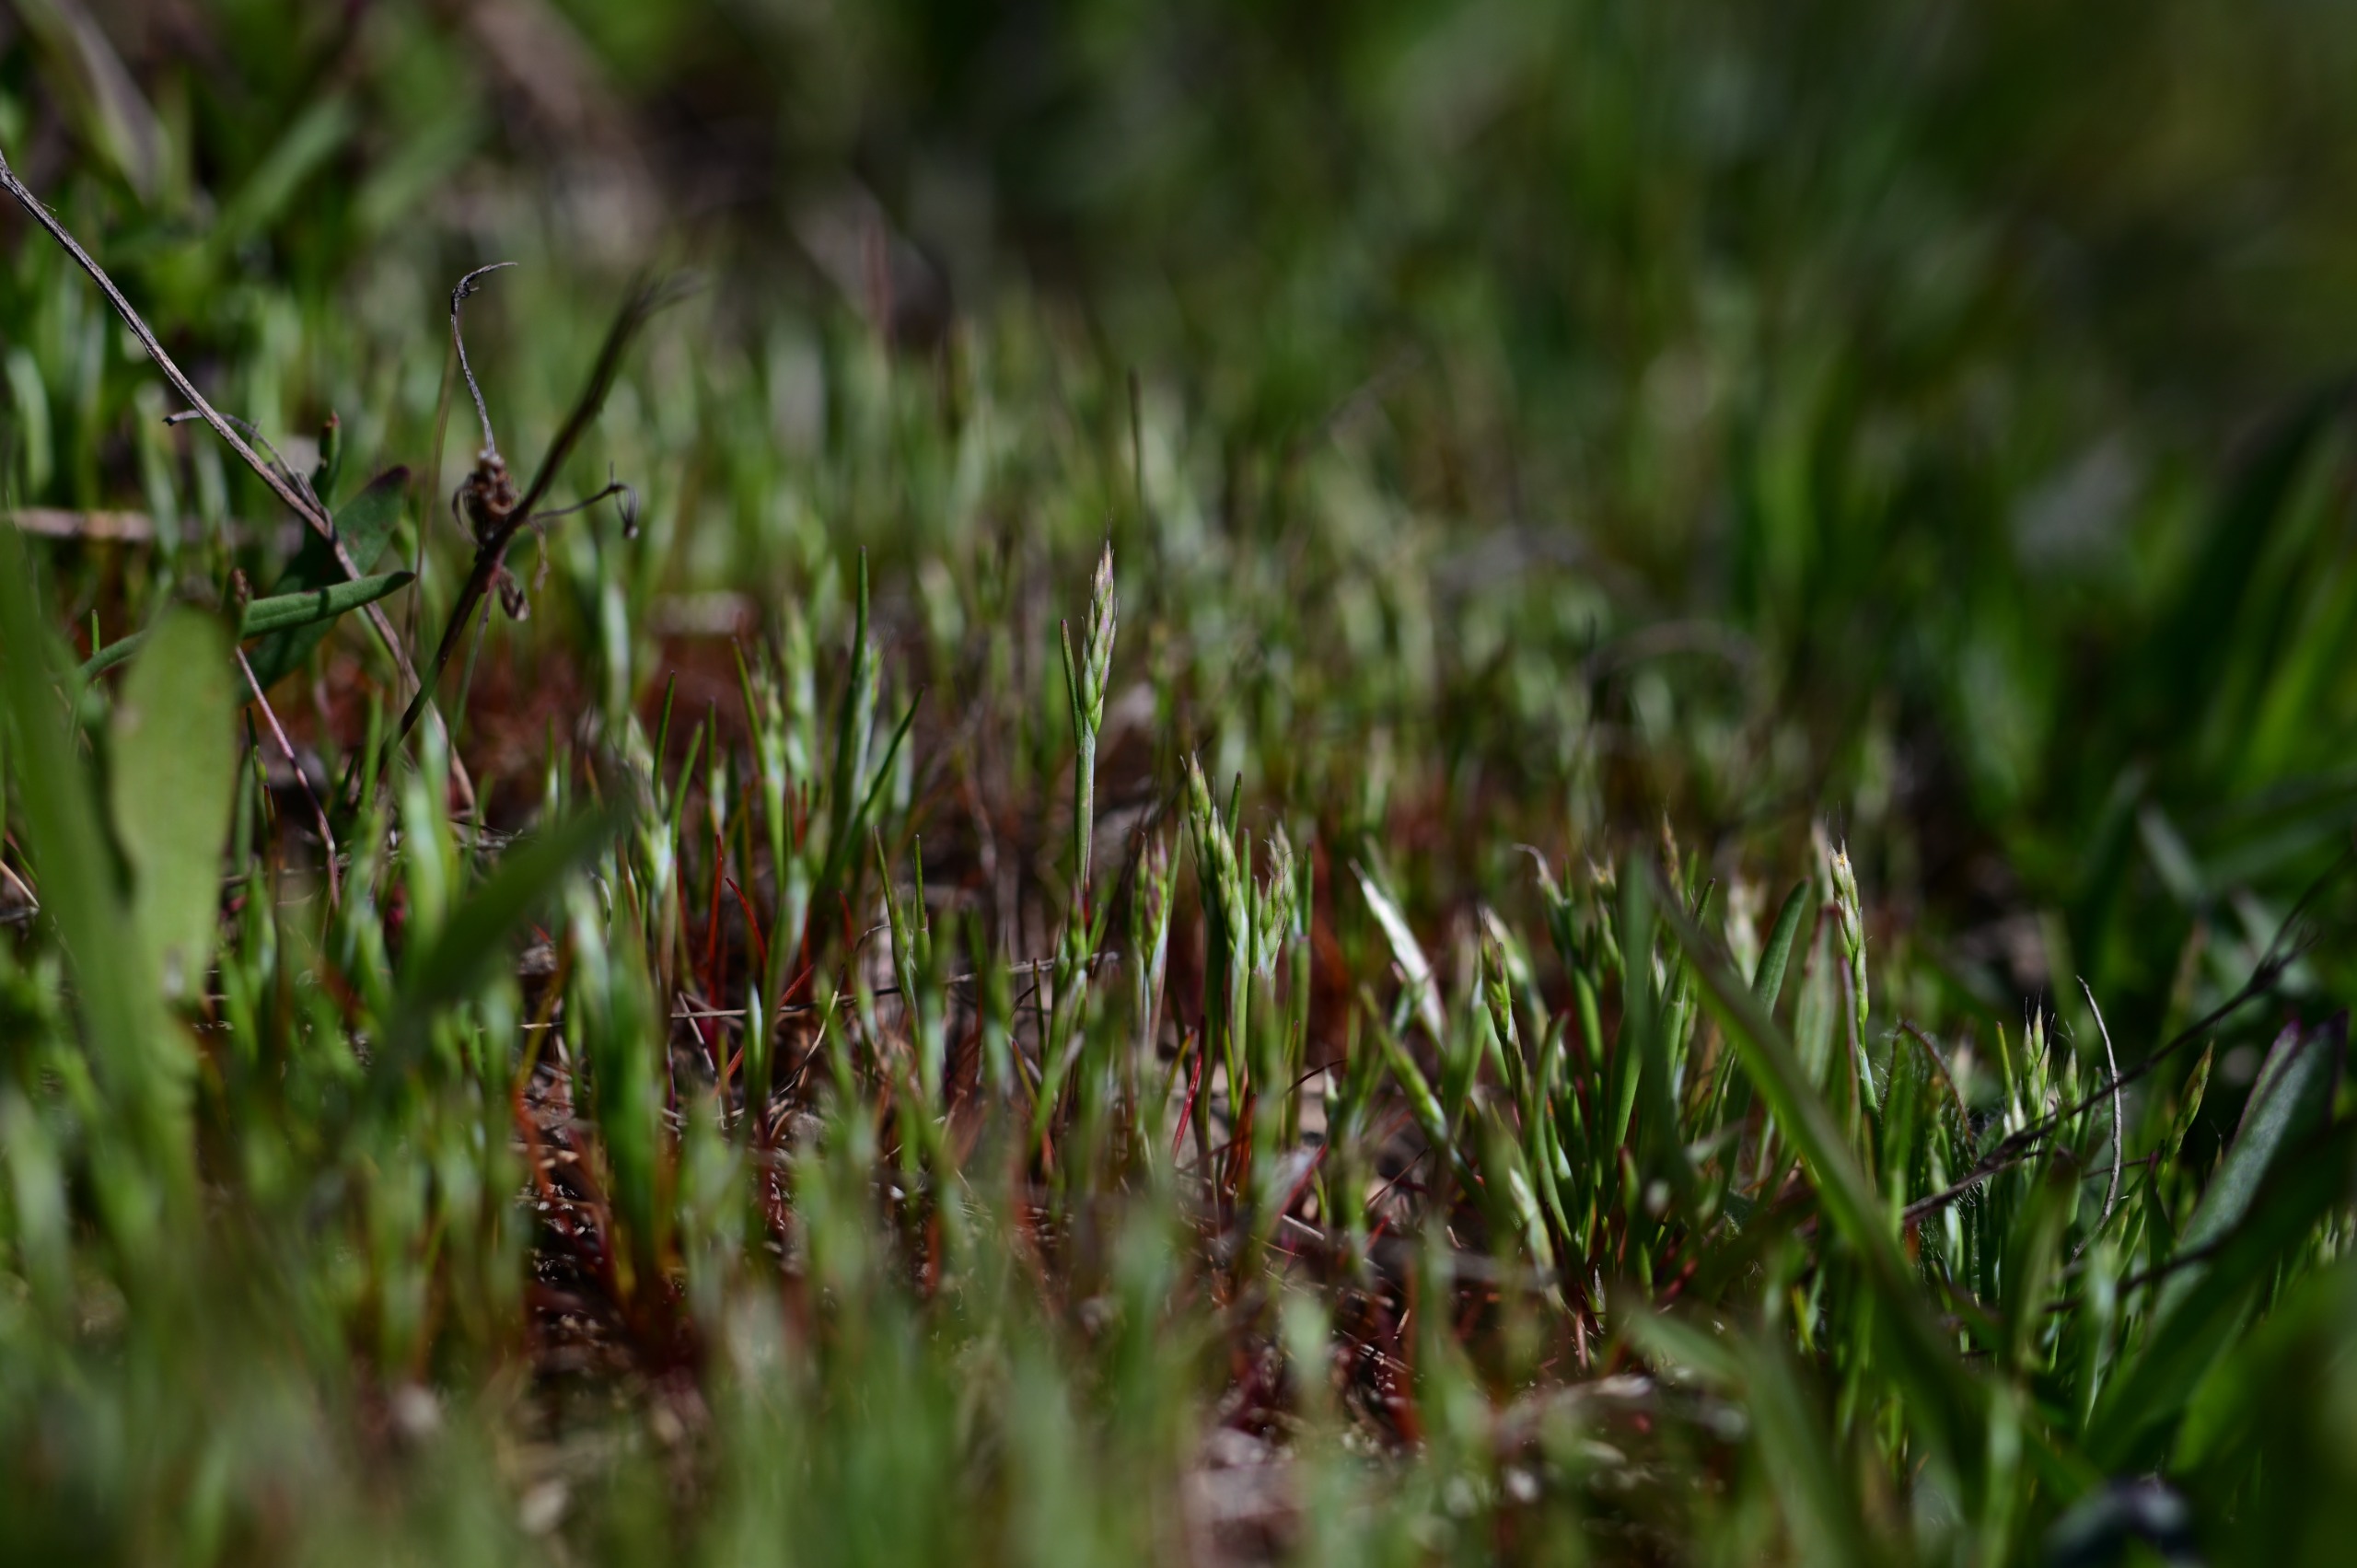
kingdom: Plantae
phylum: Tracheophyta
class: Liliopsida
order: Poales
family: Poaceae
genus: Aira
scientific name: Aira praecox
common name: Tidlig dværgbunke
